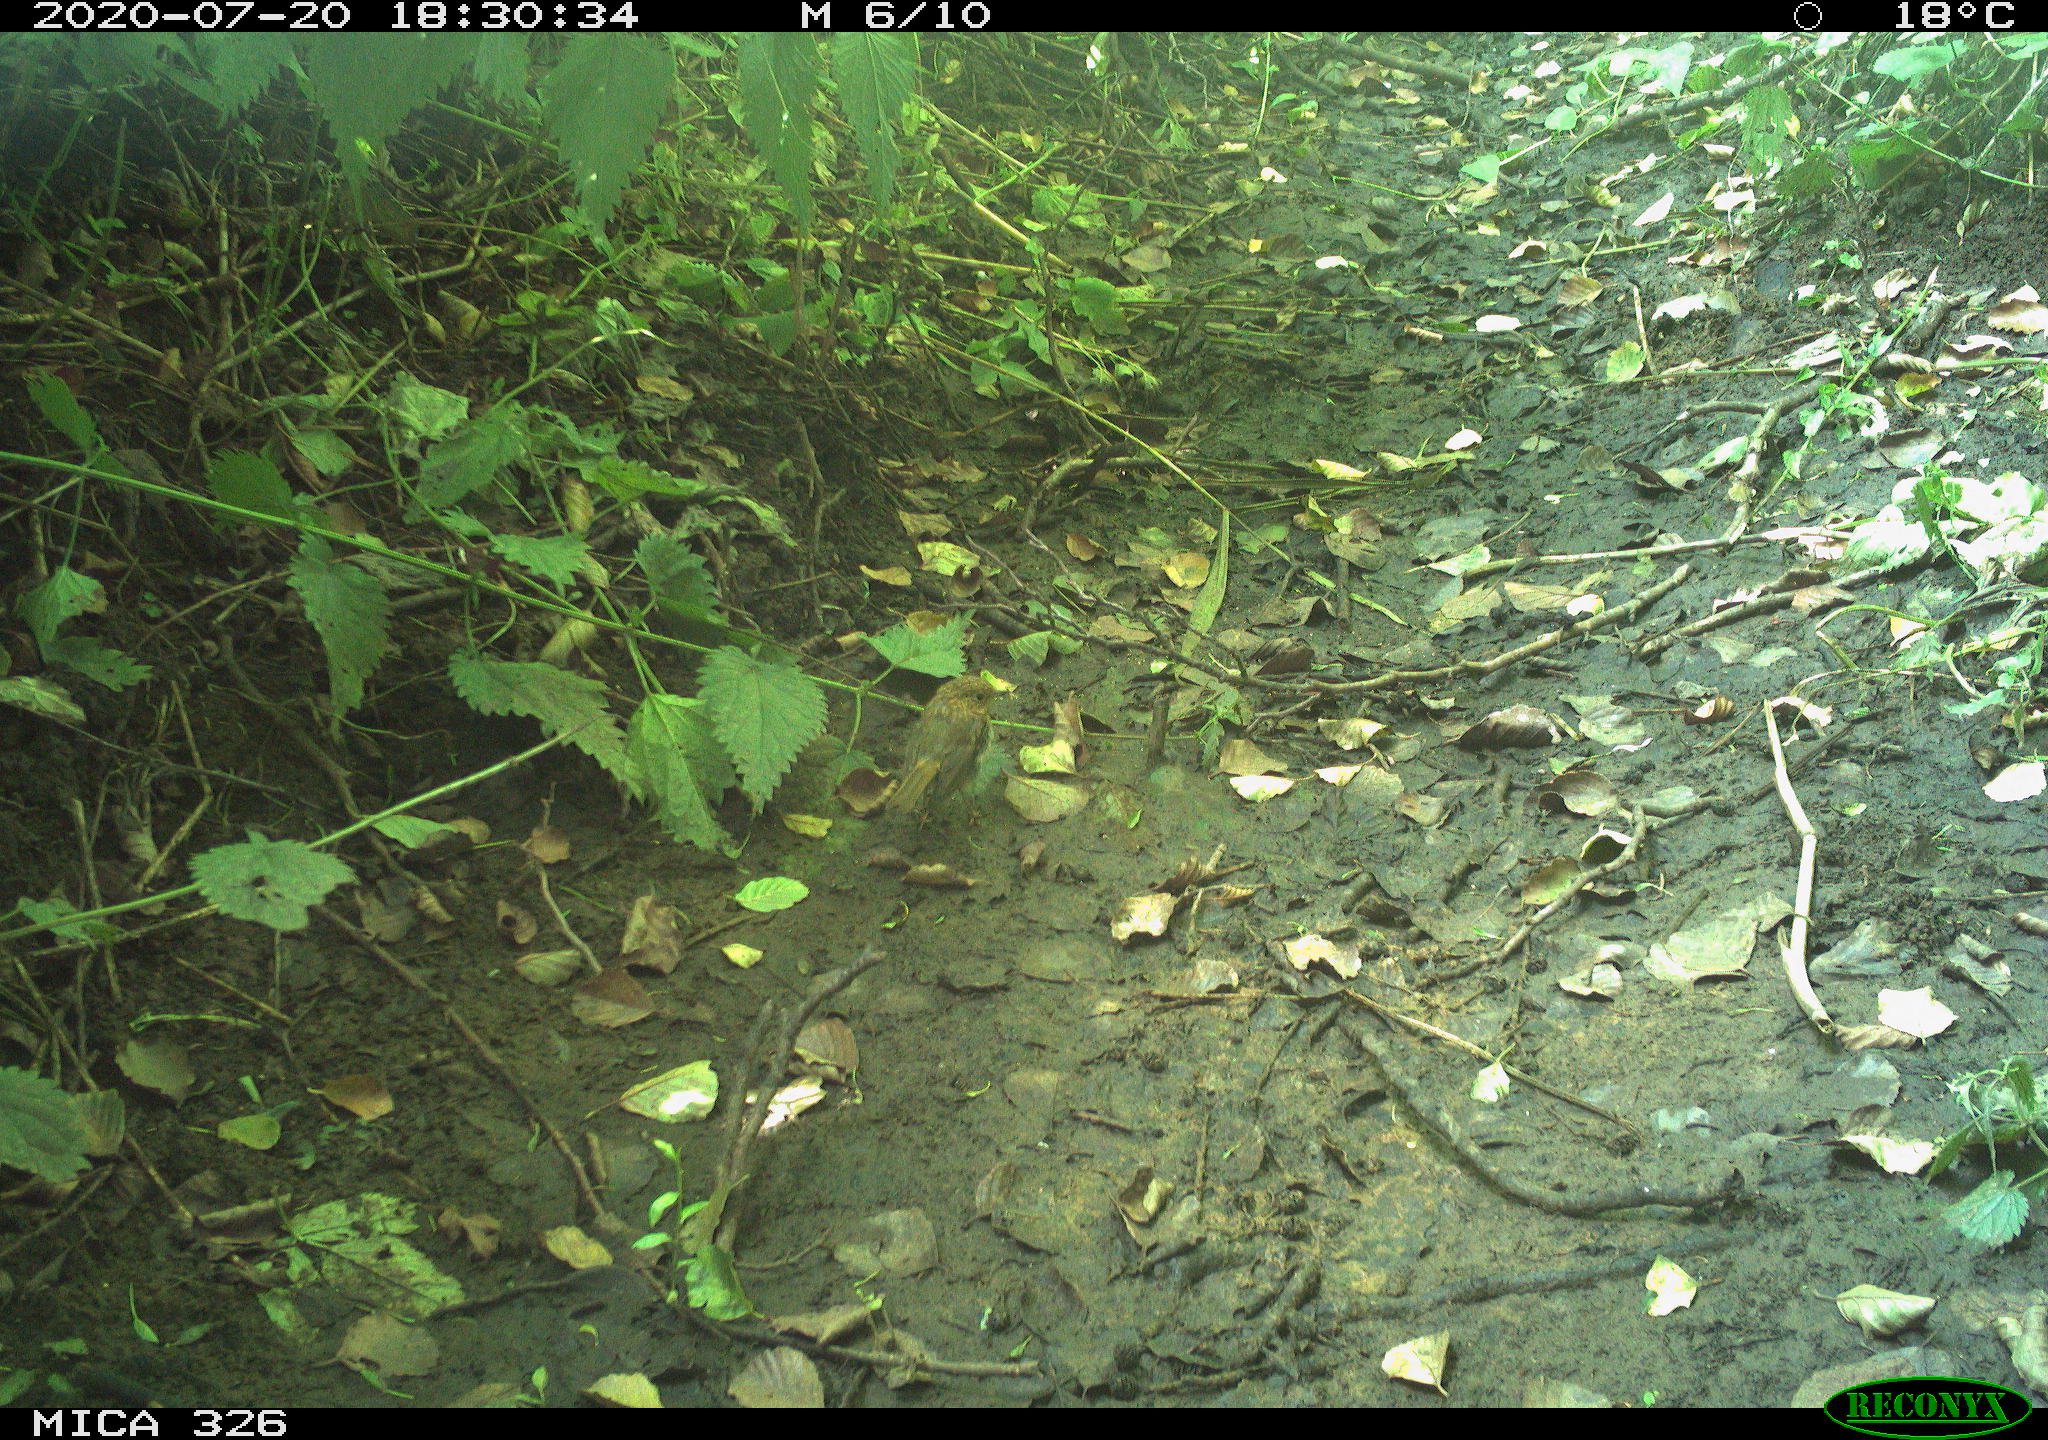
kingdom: Animalia
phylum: Chordata
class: Aves
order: Passeriformes
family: Troglodytidae
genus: Troglodytes
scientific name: Troglodytes troglodytes
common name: Eurasian wren
